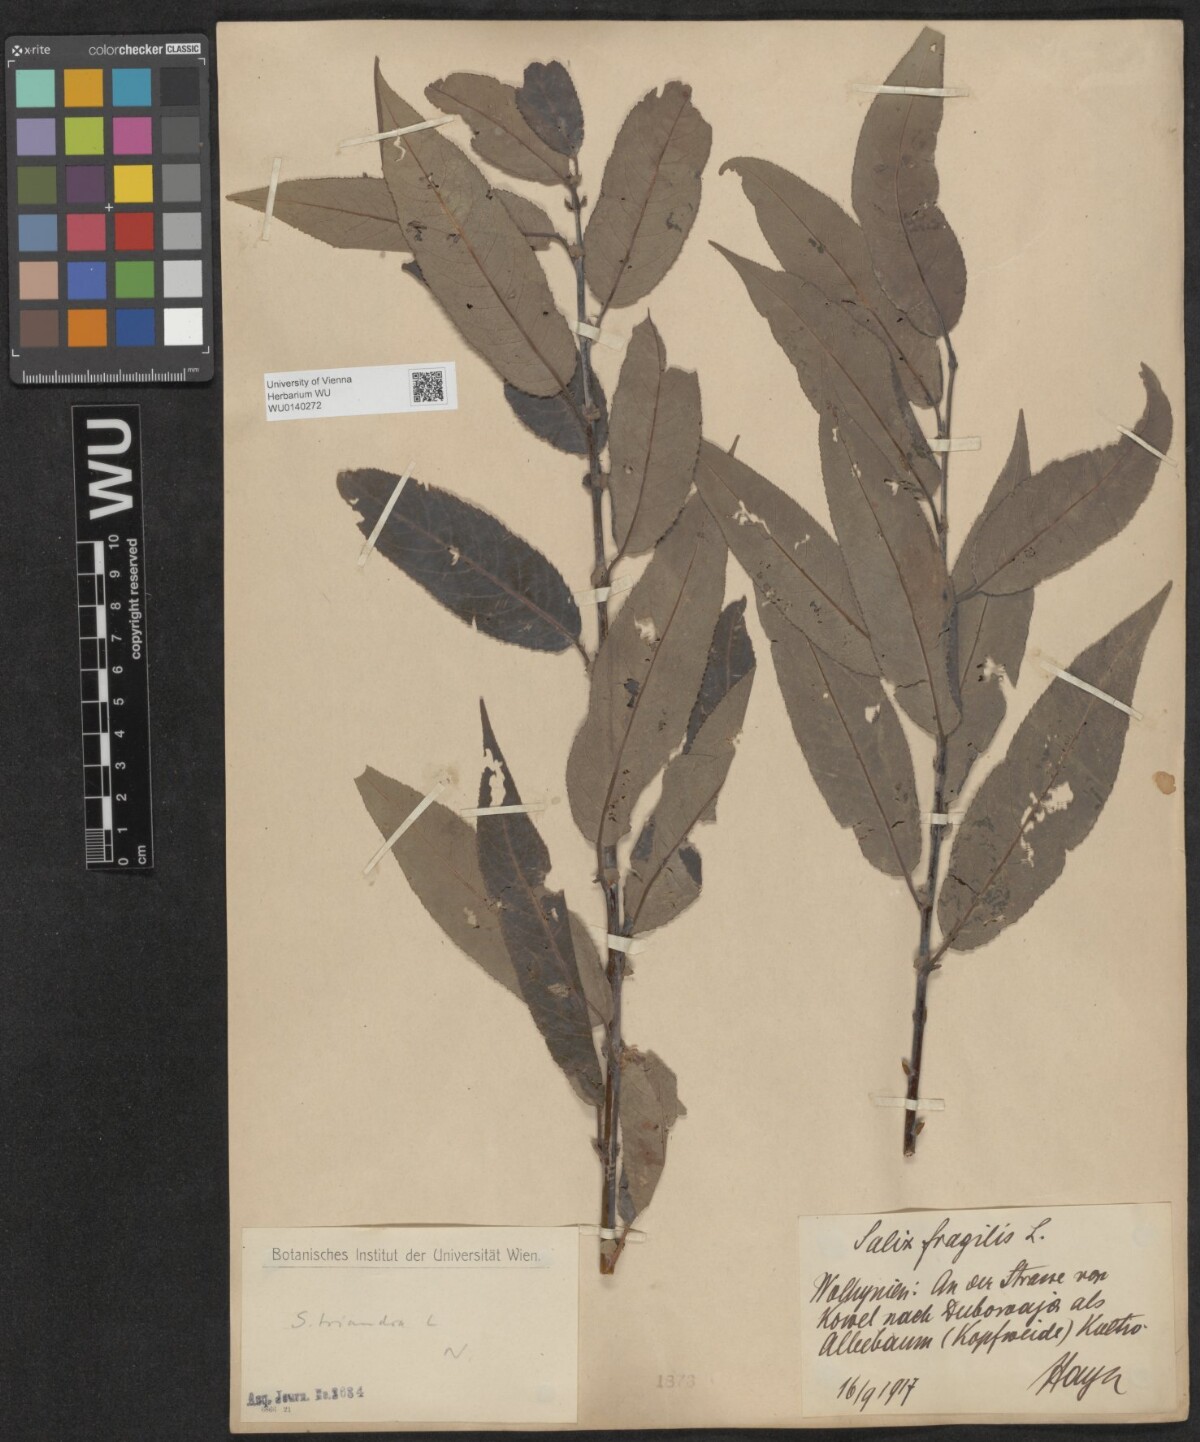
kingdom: Plantae
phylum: Tracheophyta
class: Magnoliopsida
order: Malpighiales
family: Salicaceae
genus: Salix
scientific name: Salix triandra
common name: Almond willow
